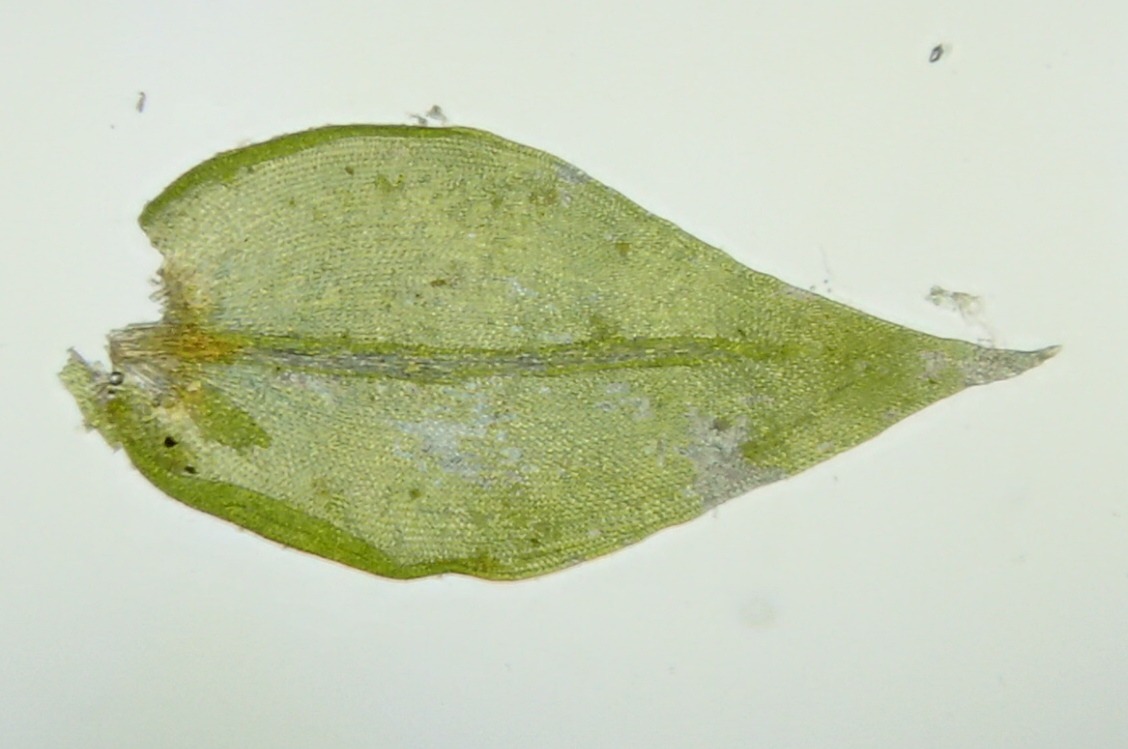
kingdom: Plantae
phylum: Bryophyta
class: Bryopsida
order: Hypnales
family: Cryphaeaceae
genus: Cryphaea
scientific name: Cryphaea heteromalla
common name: Bark-dækmos
